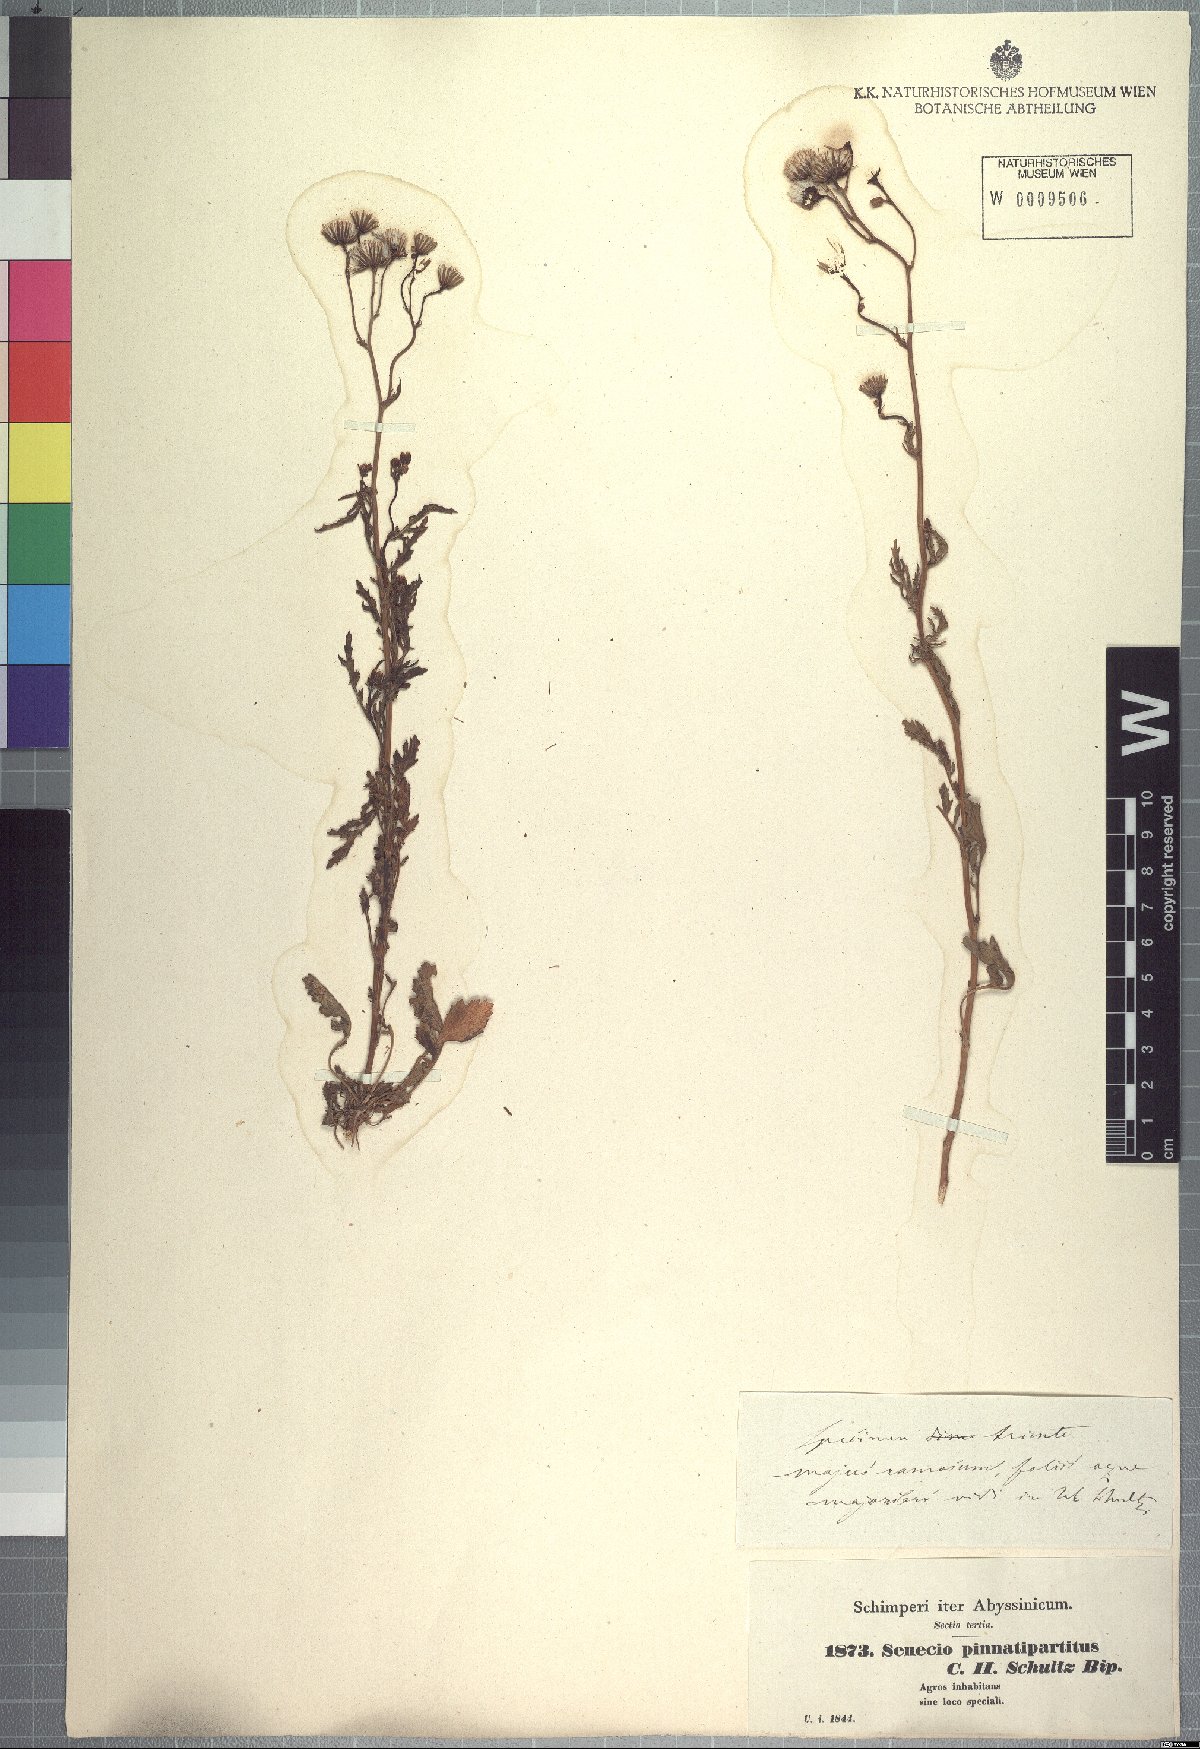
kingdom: Plantae
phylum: Tracheophyta
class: Magnoliopsida
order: Asterales
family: Asteraceae
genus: Senecio
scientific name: Senecio pinnatipartitus
